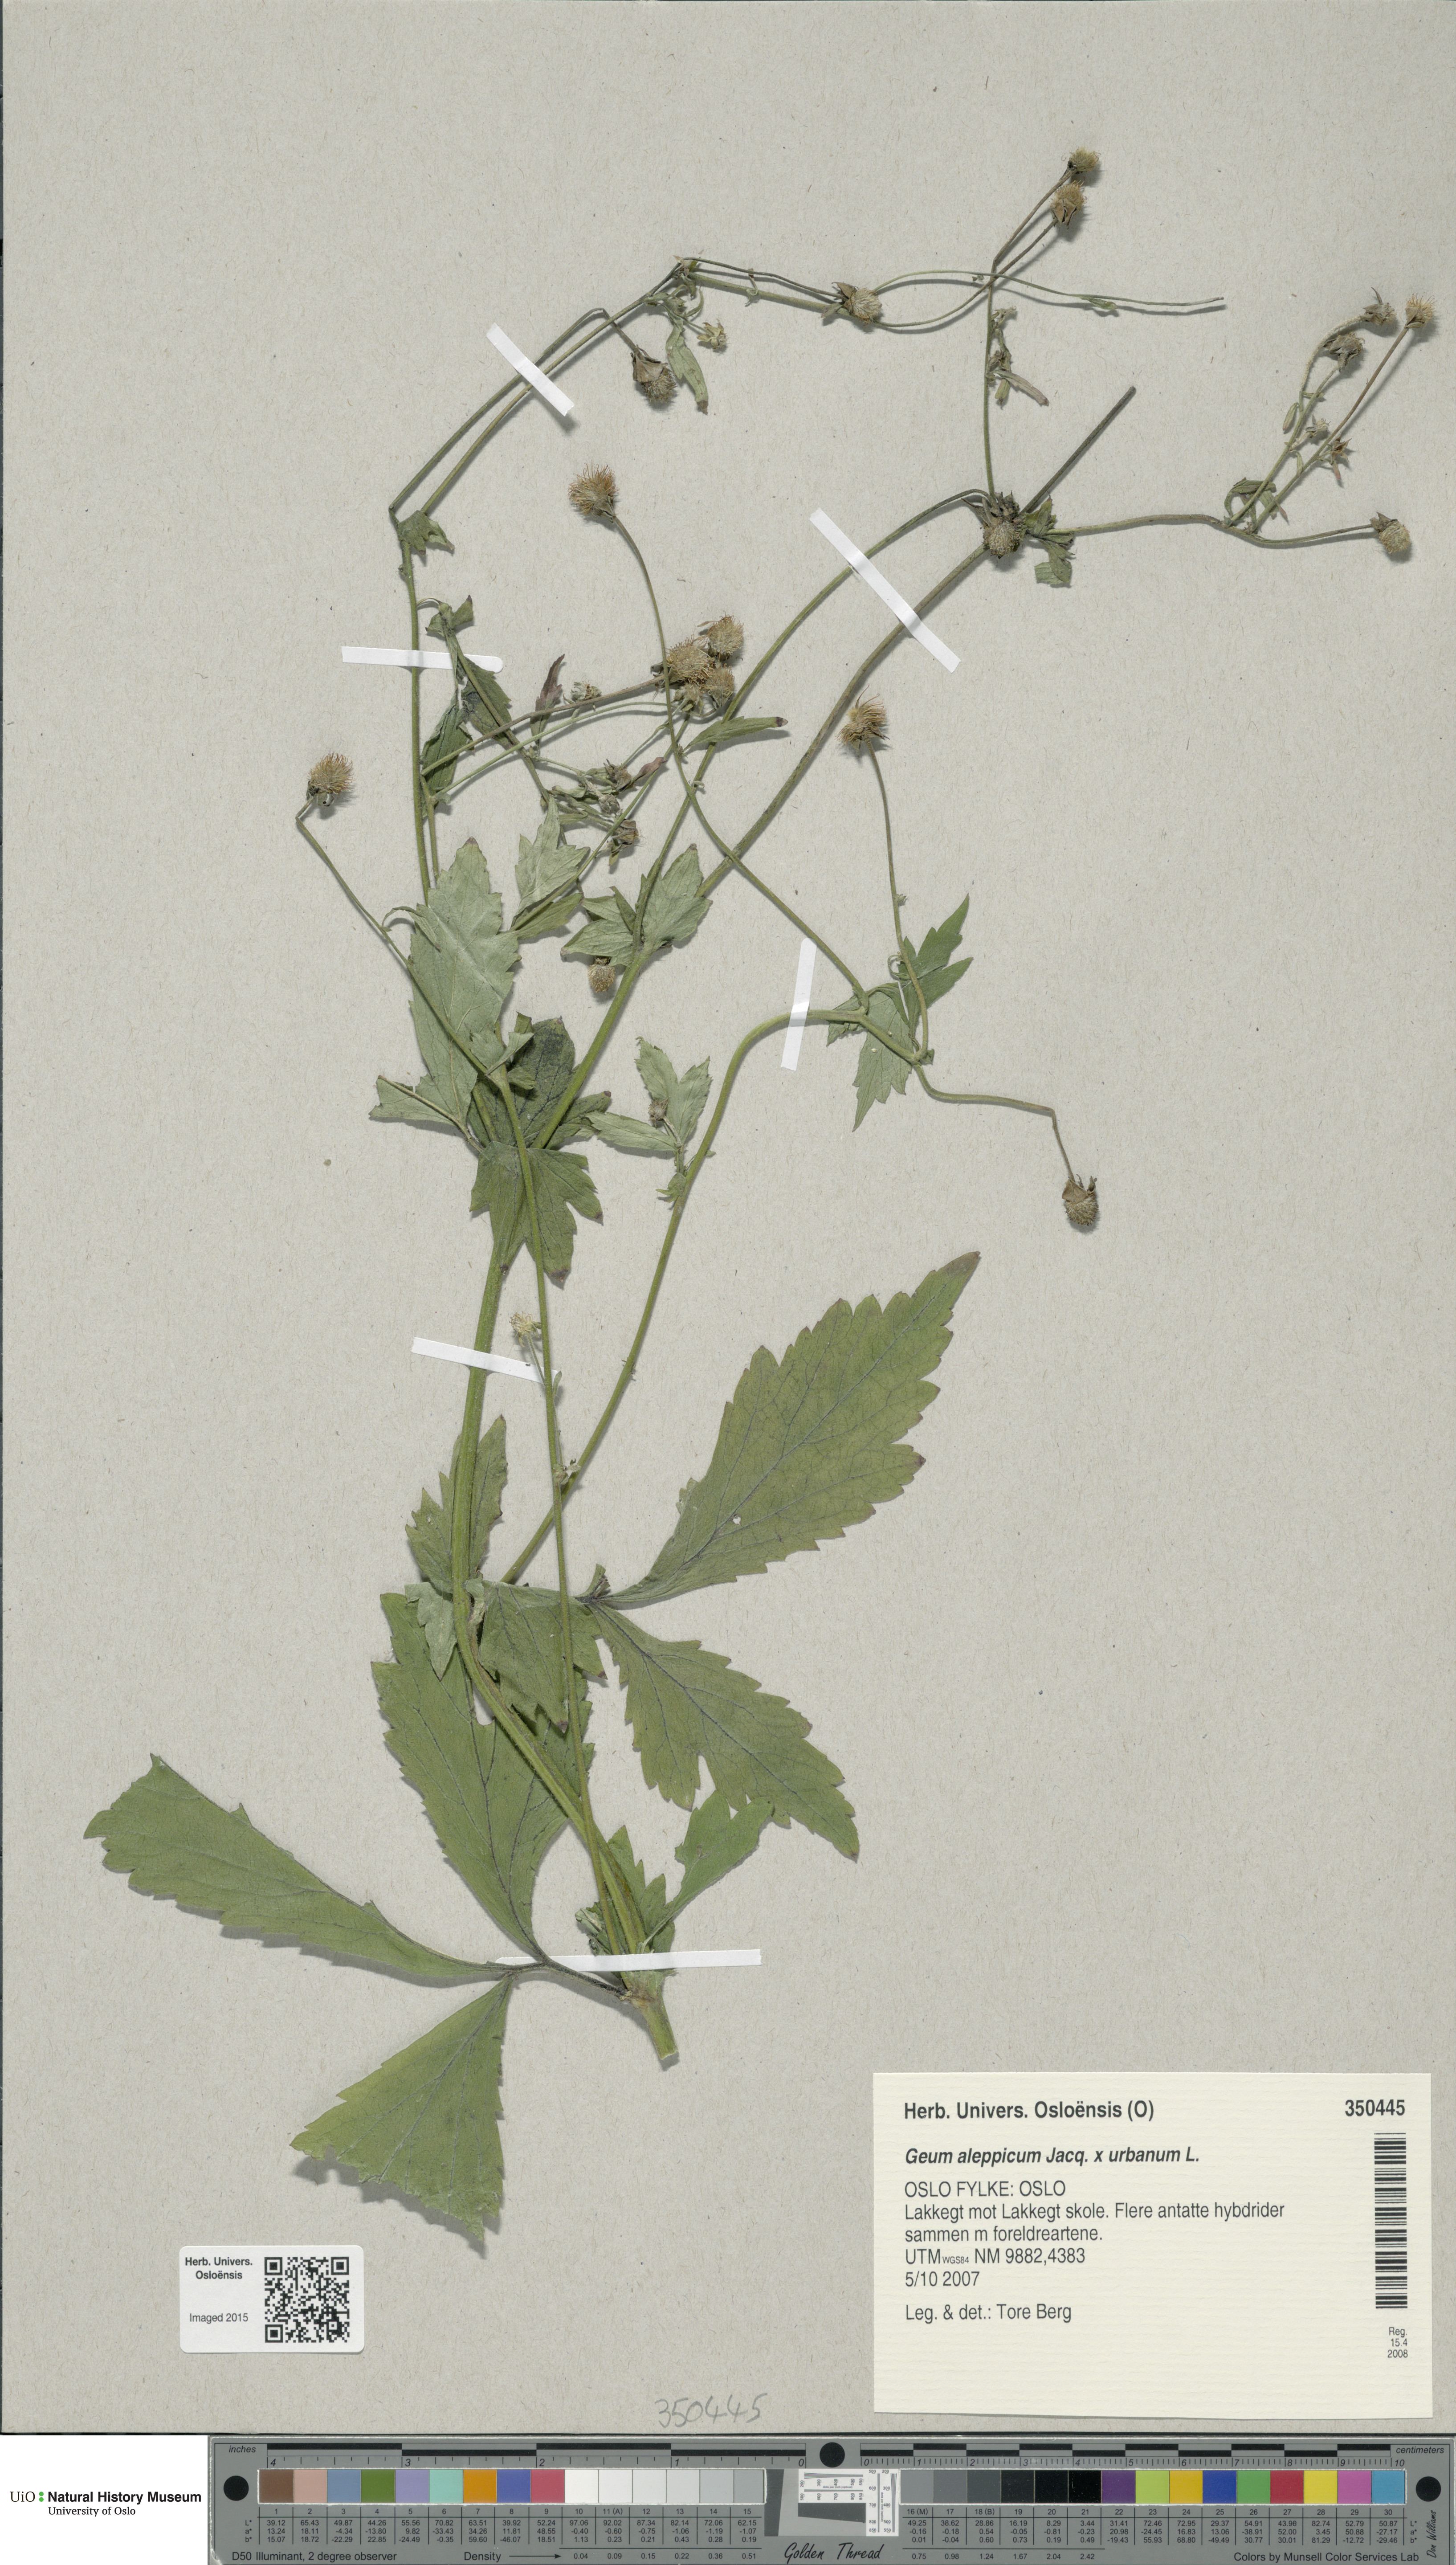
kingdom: Plantae
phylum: Tracheophyta
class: Magnoliopsida
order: Rosales
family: Rosaceae
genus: Geum
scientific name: Geum
